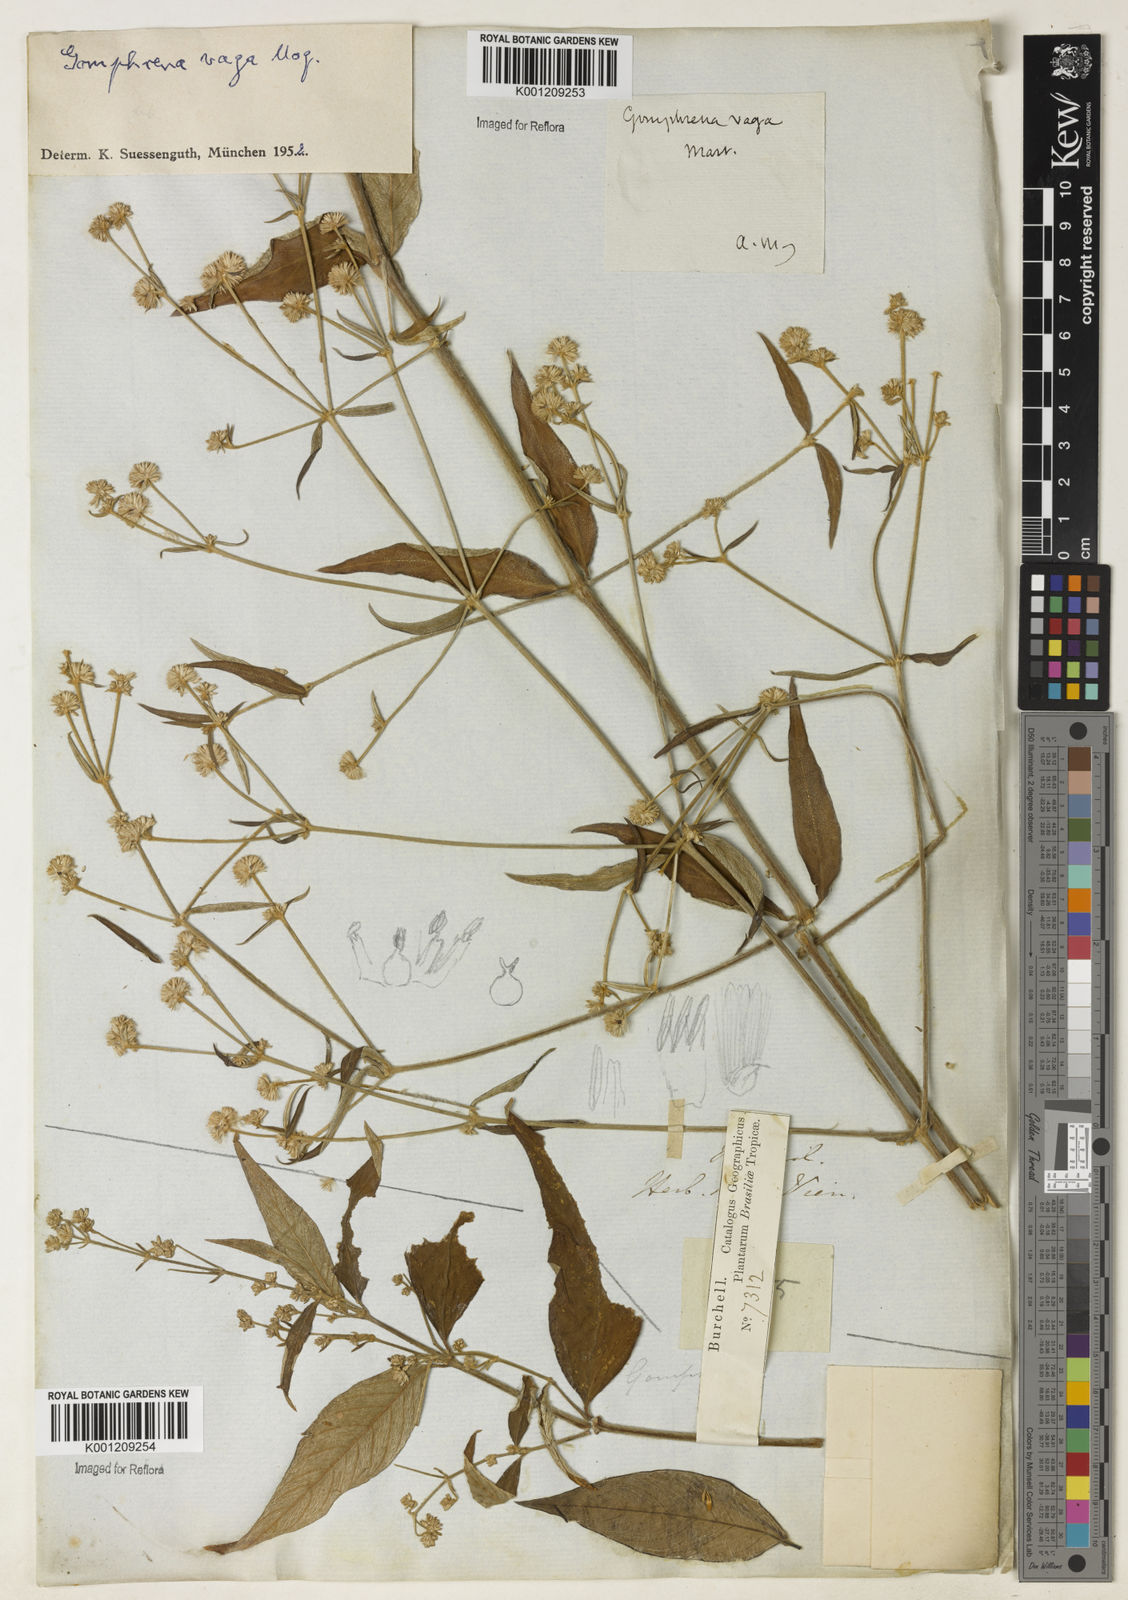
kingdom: Plantae
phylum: Tracheophyta
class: Magnoliopsida
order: Caryophyllales
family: Amaranthaceae
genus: Gomphrena
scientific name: Gomphrena vaga
